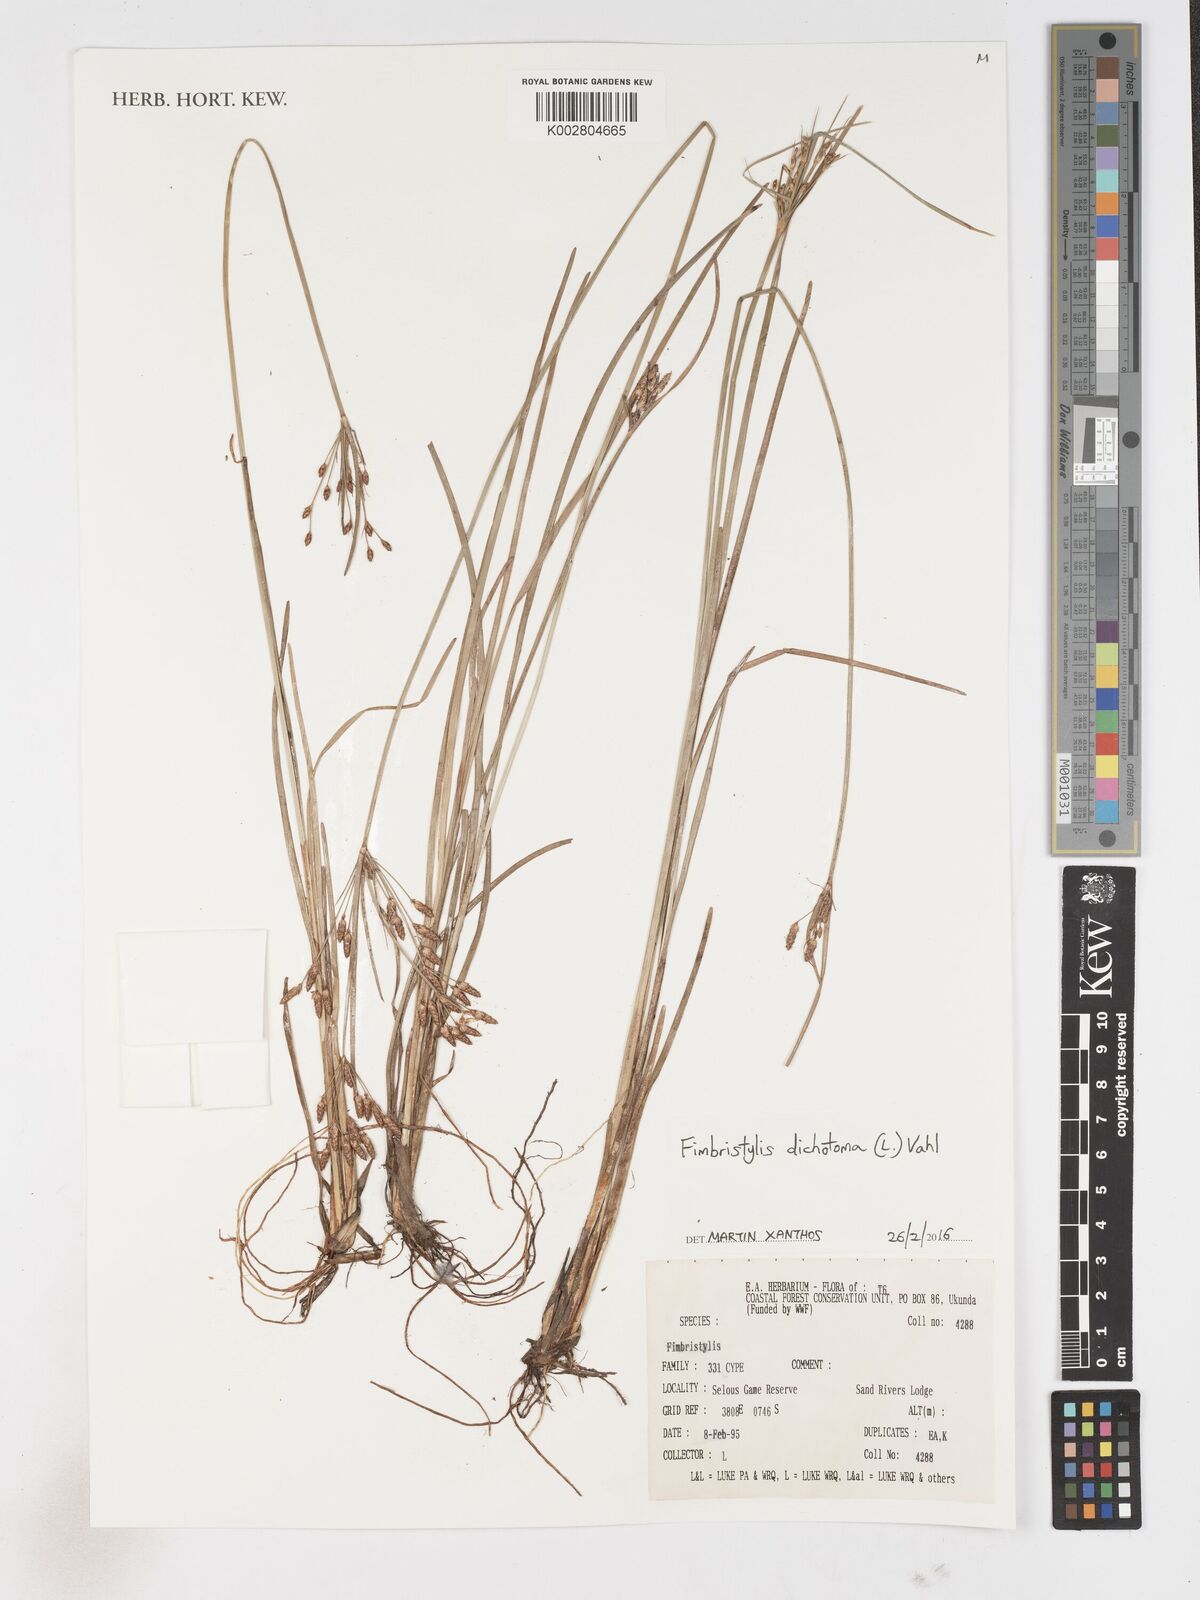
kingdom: Plantae
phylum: Tracheophyta
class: Liliopsida
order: Poales
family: Cyperaceae
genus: Fimbristylis
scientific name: Fimbristylis dichotoma
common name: Forked fimbry
